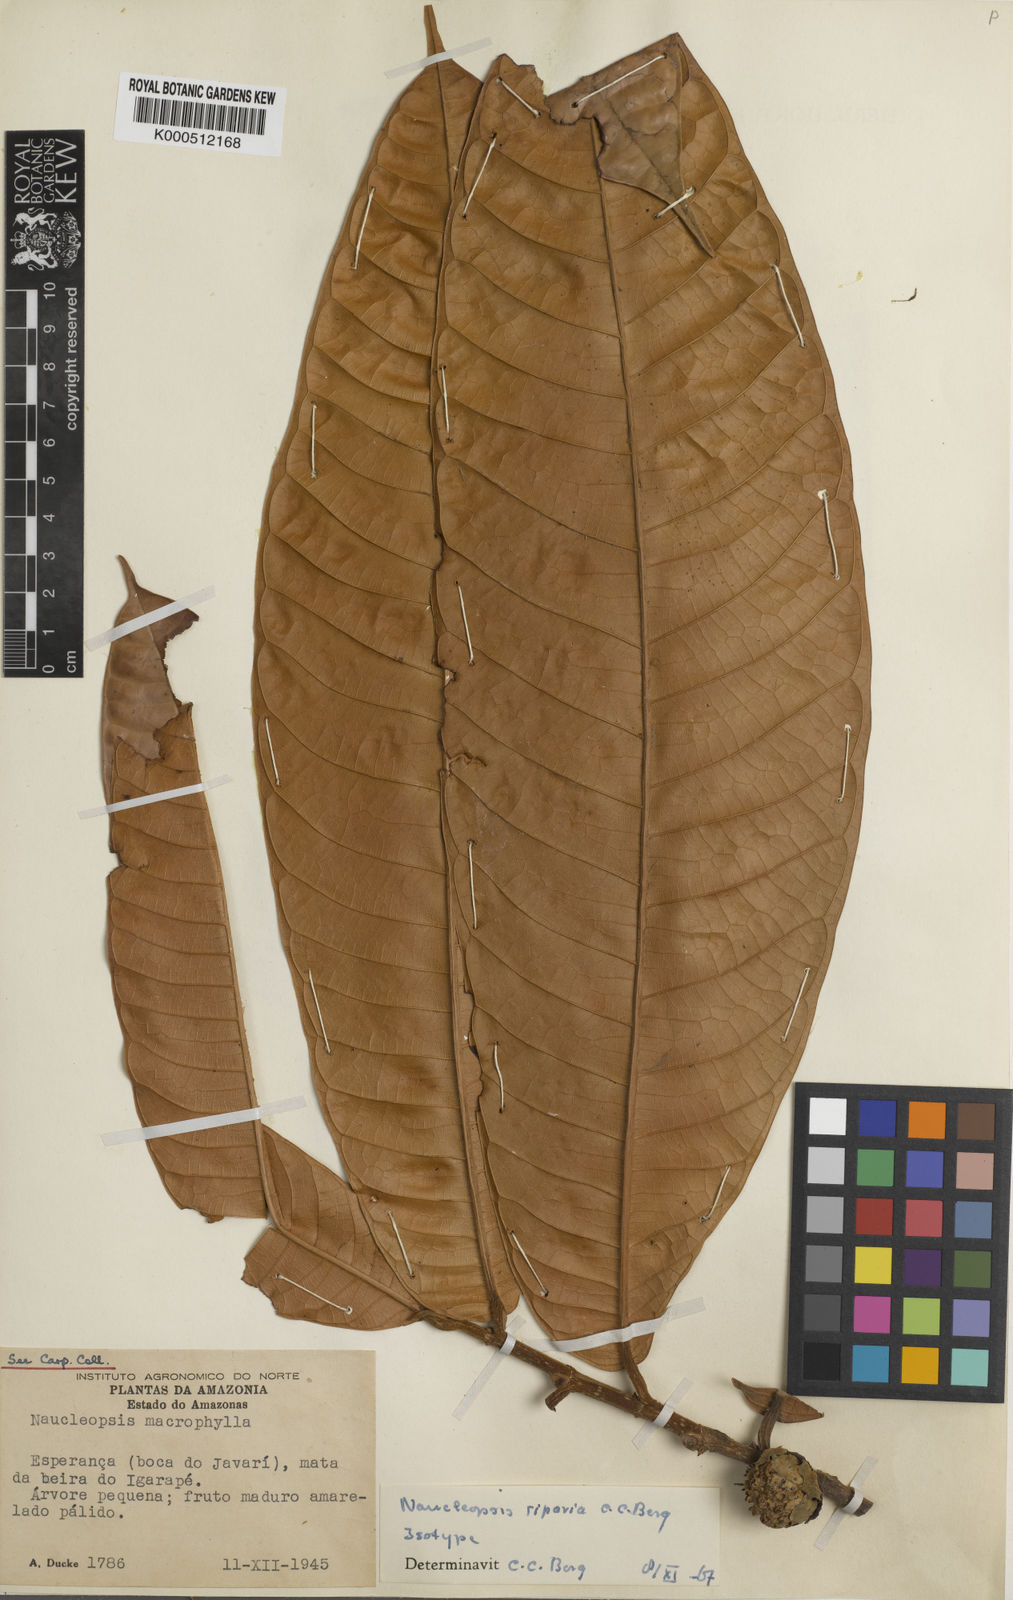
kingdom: Plantae
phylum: Tracheophyta
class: Magnoliopsida
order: Rosales
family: Moraceae
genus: Naucleopsis
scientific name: Naucleopsis riparia
